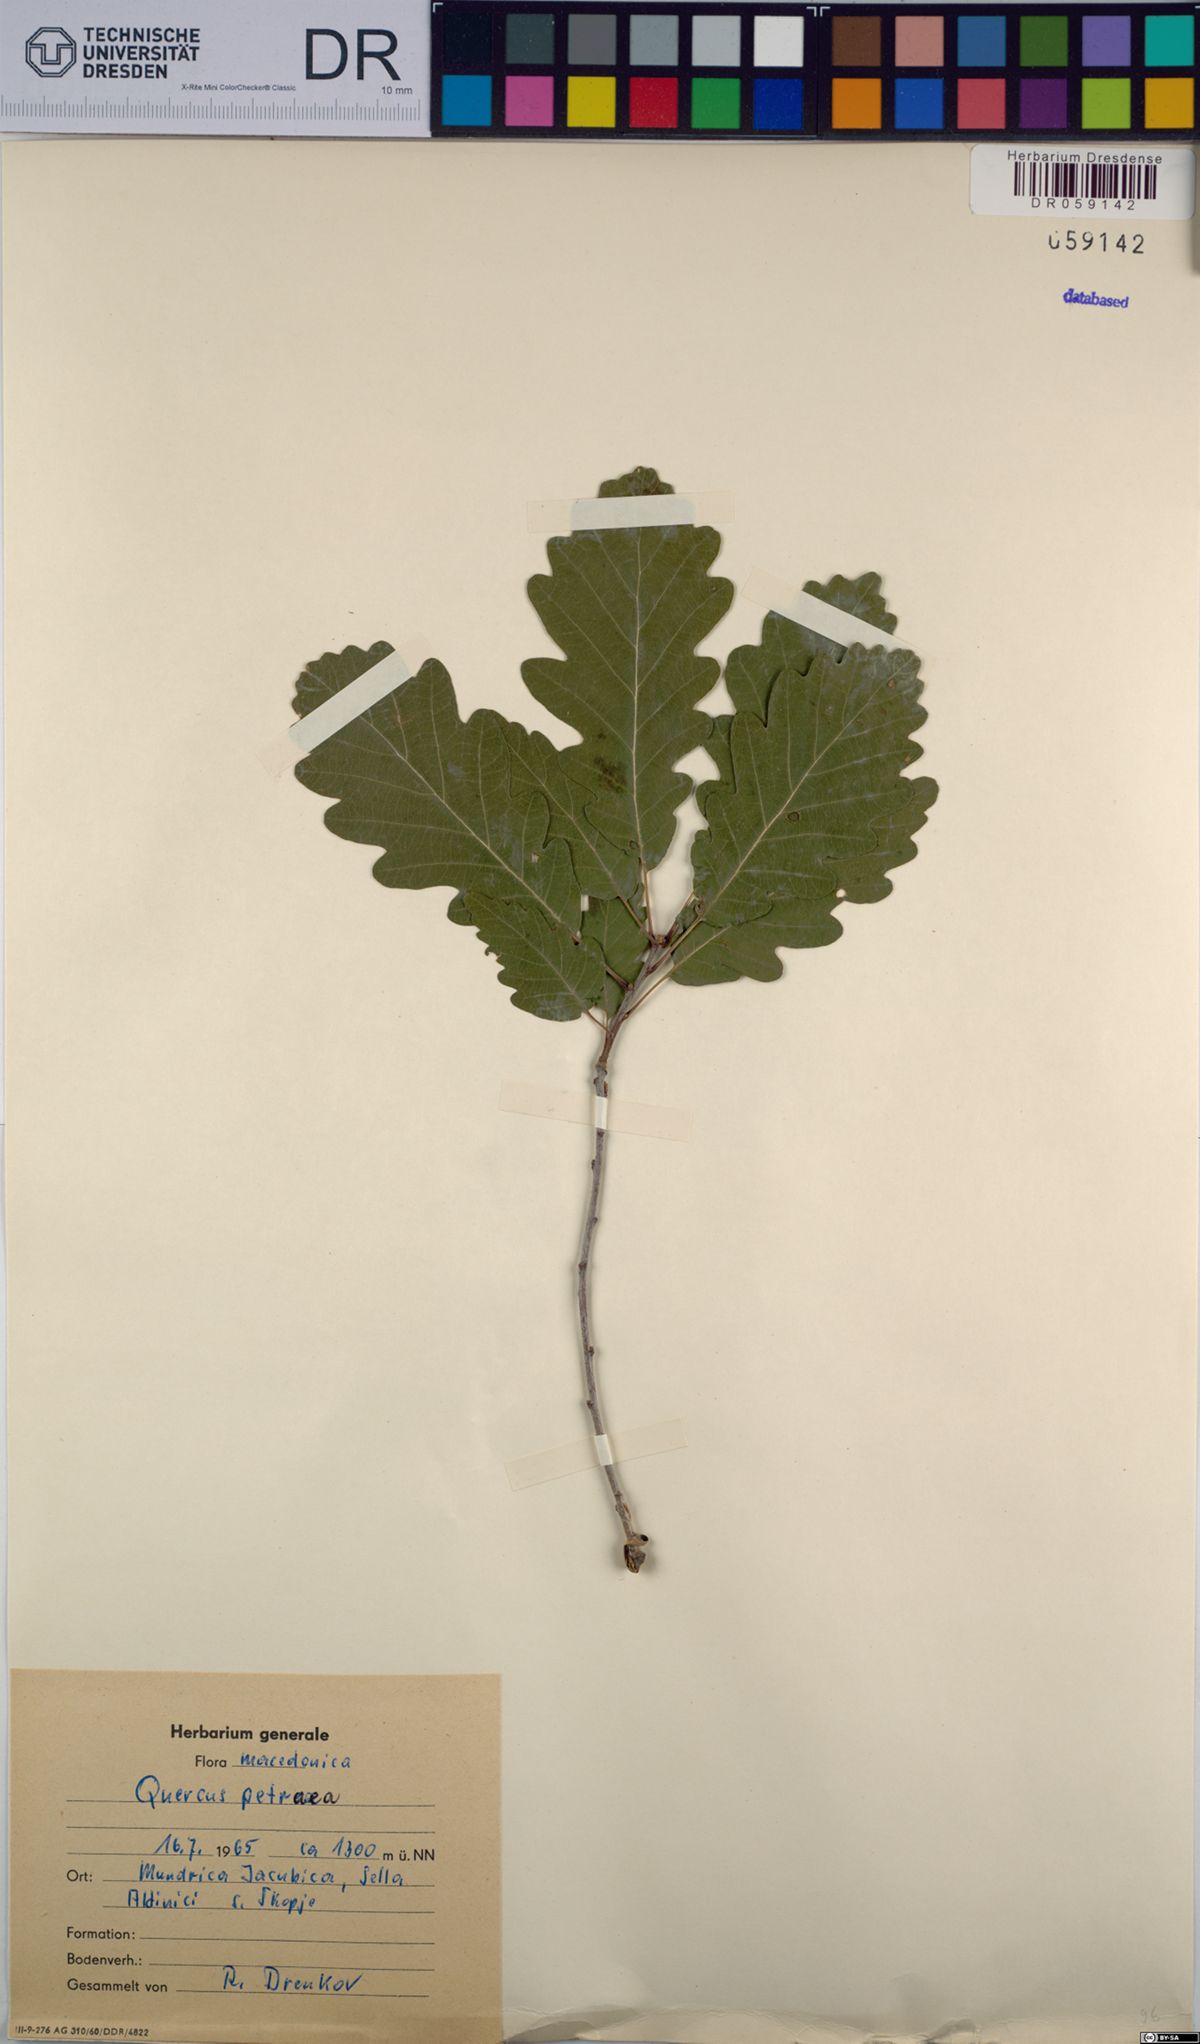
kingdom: Plantae
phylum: Tracheophyta
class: Magnoliopsida
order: Fagales
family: Fagaceae
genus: Quercus
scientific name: Quercus petraea
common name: Sessile oak
